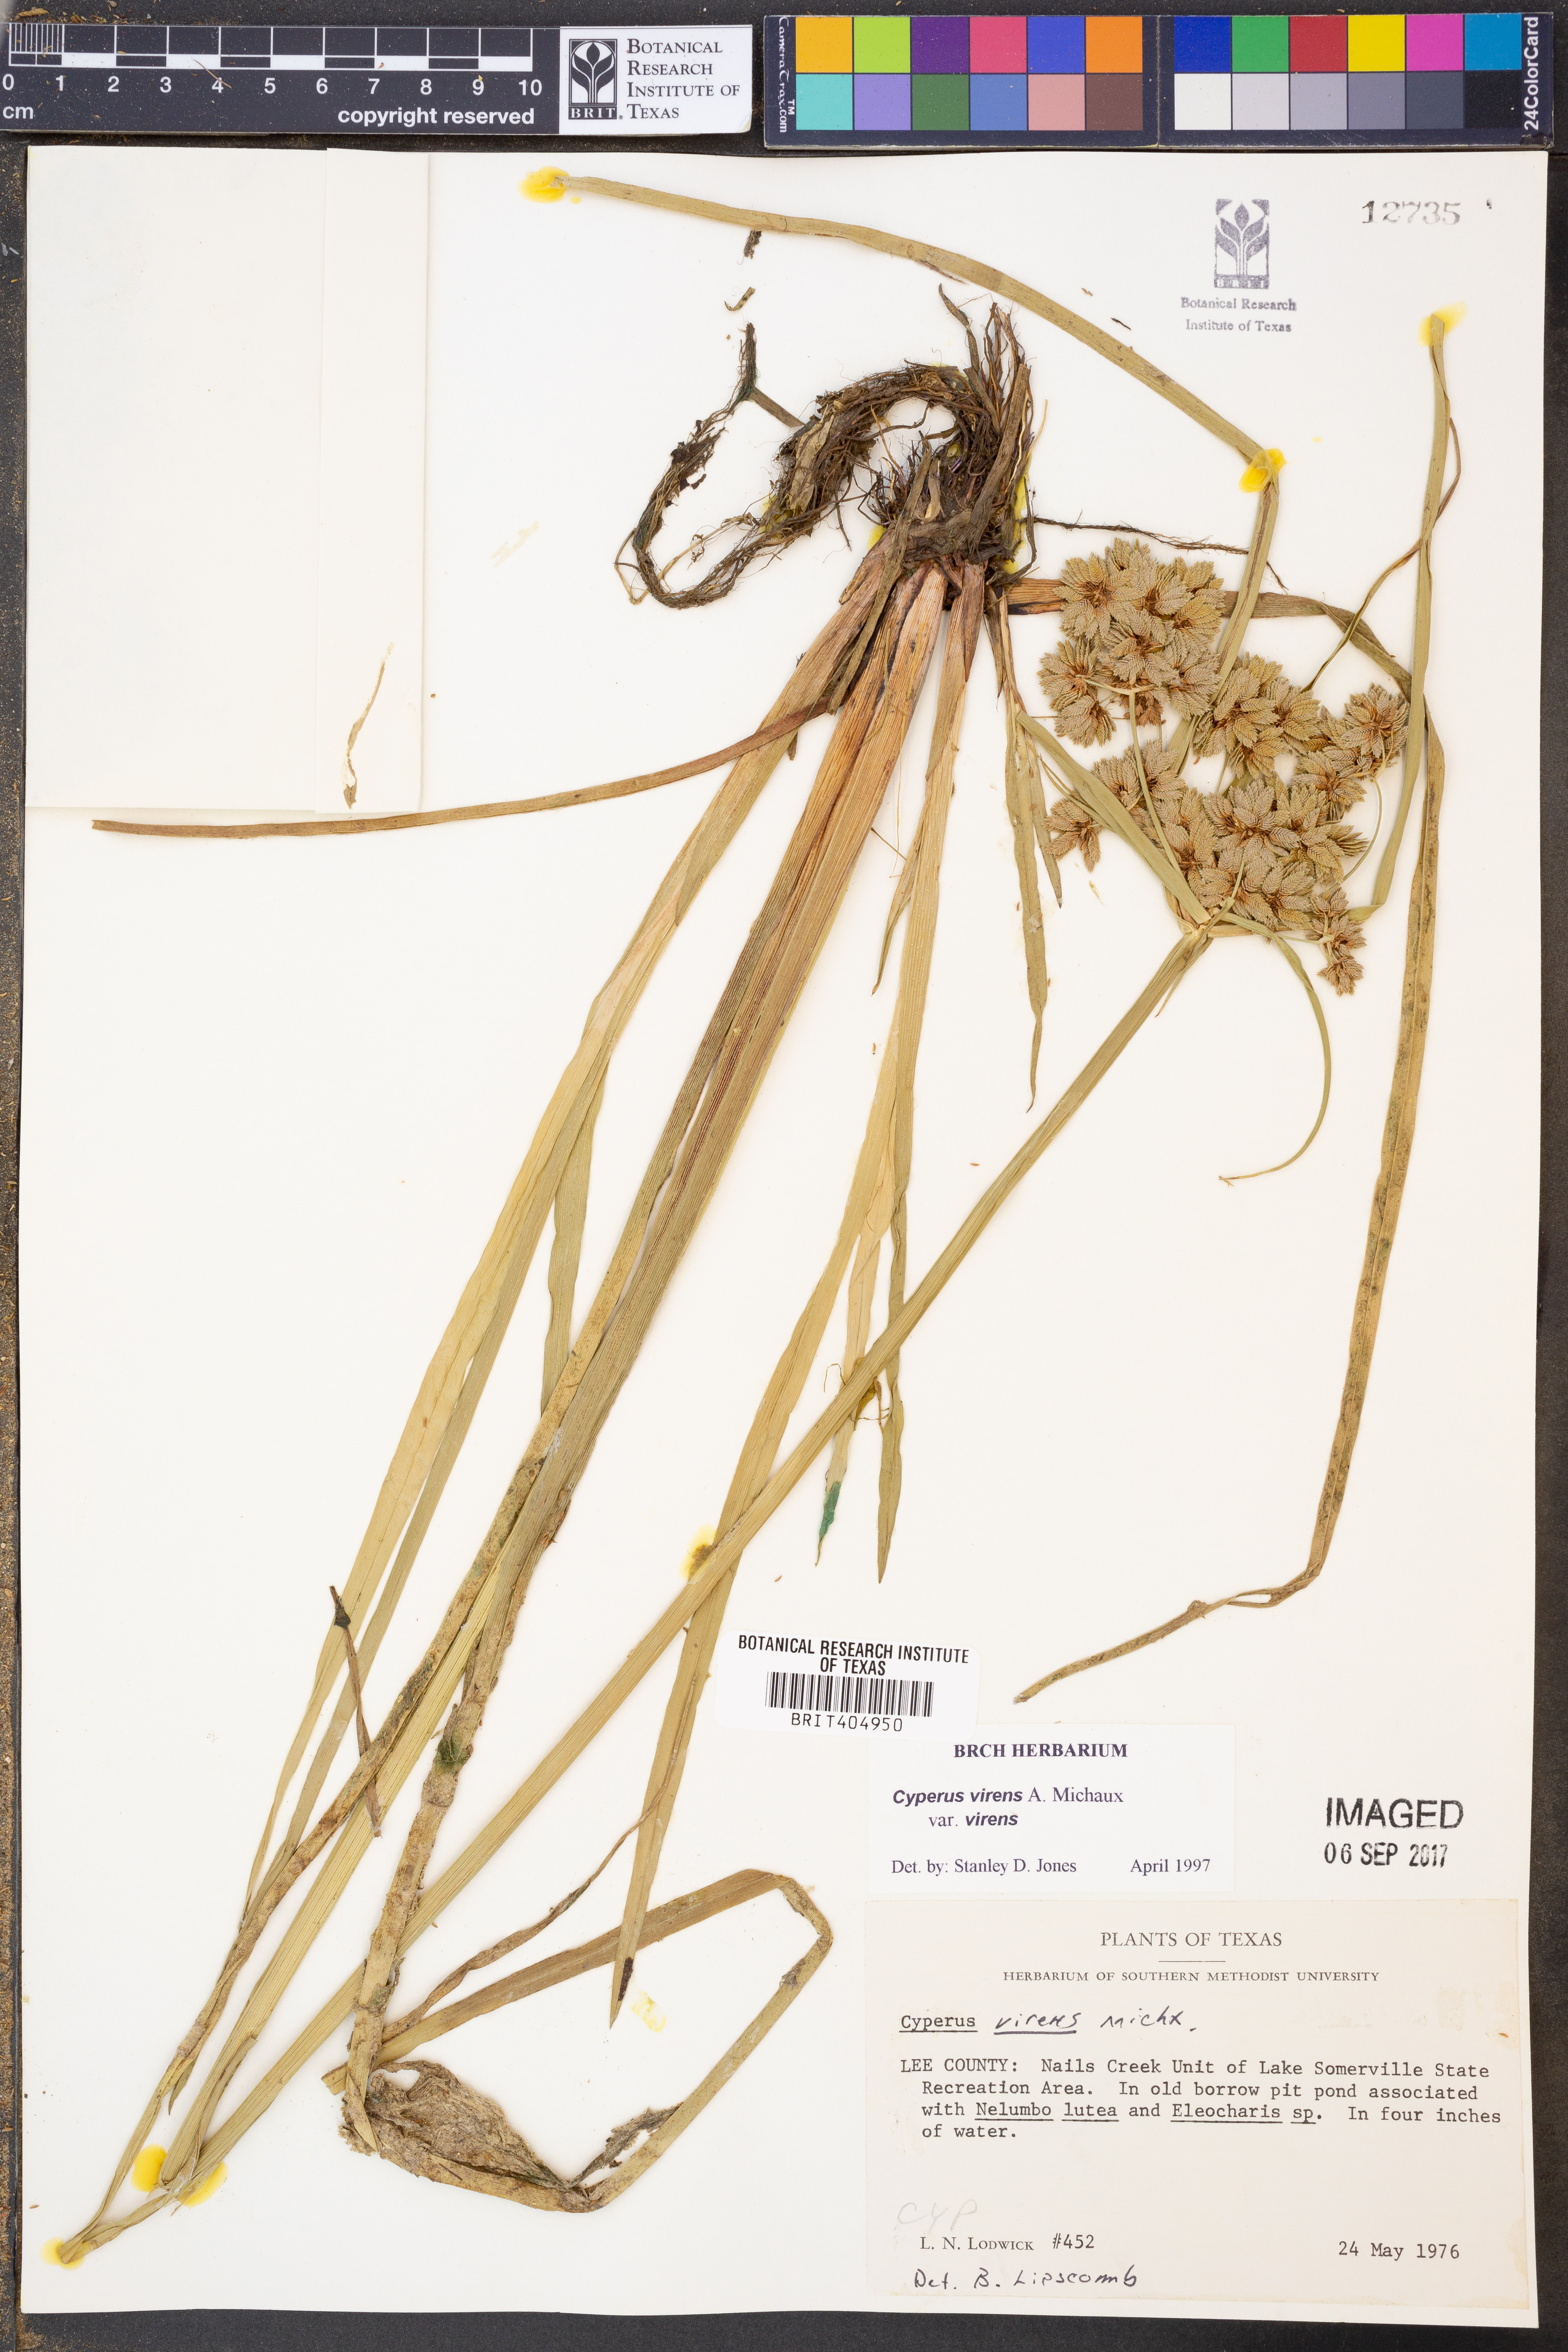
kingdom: Plantae
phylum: Tracheophyta
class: Liliopsida
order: Poales
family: Cyperaceae
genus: Cyperus
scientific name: Cyperus virens
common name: Green flatsedge
